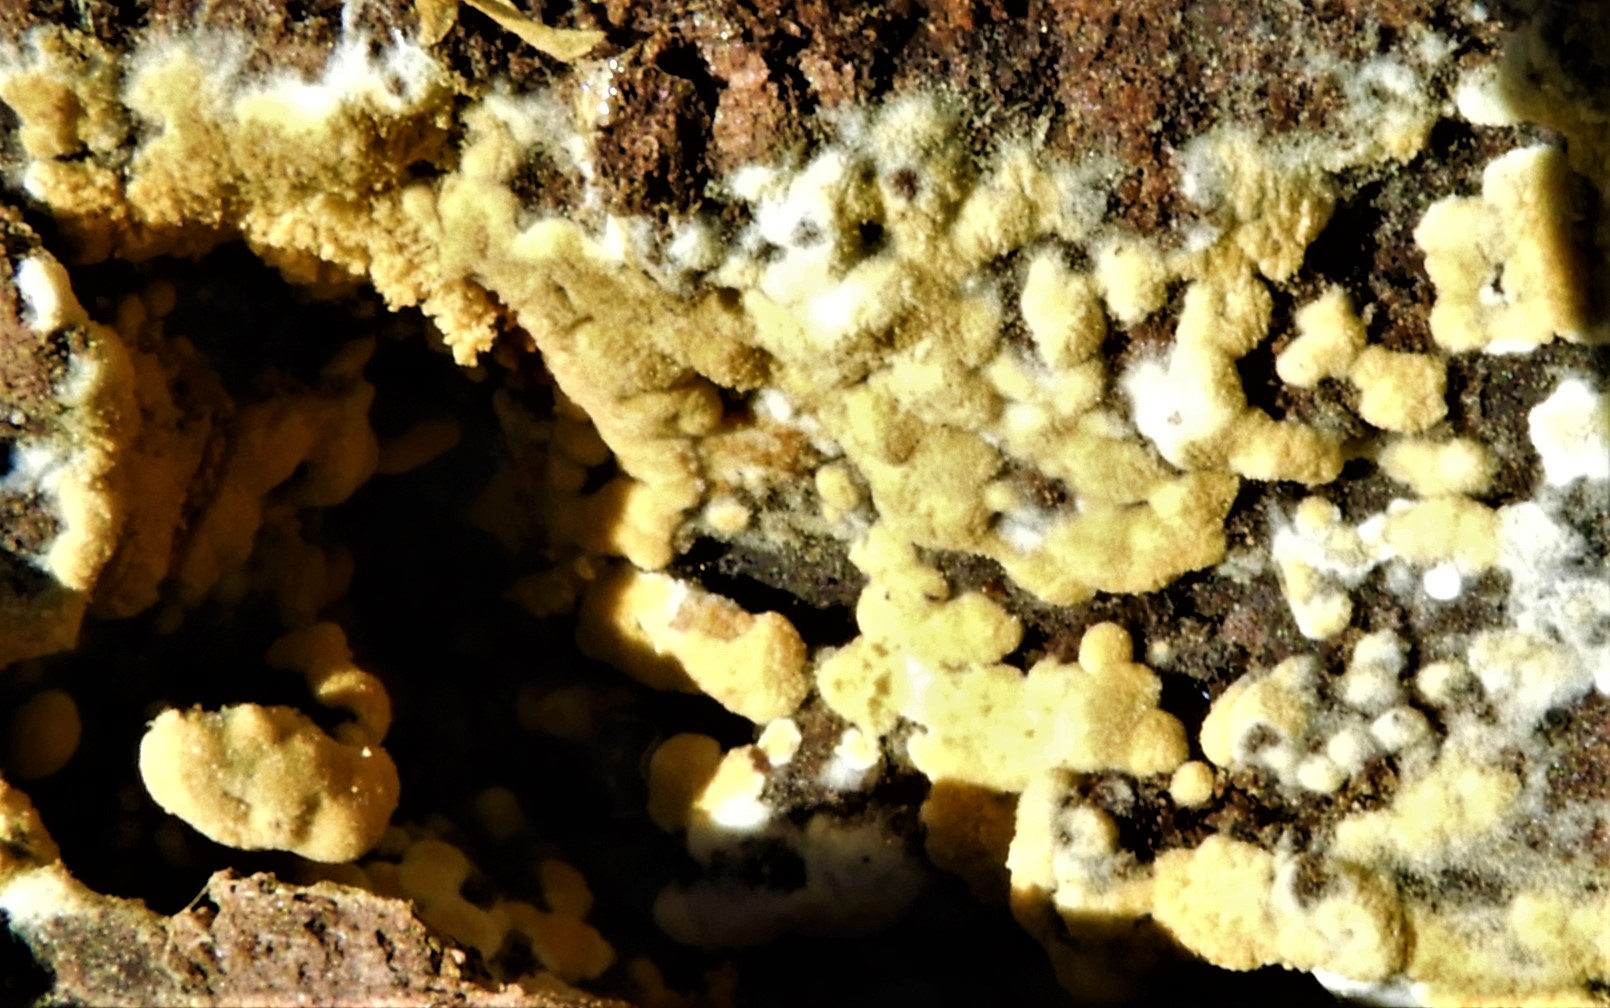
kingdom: Fungi
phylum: Basidiomycota
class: Agaricomycetes
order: Cantharellales
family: Botryobasidiaceae
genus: Botryobasidium
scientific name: Botryobasidium aureum
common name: gylden spindhinde
